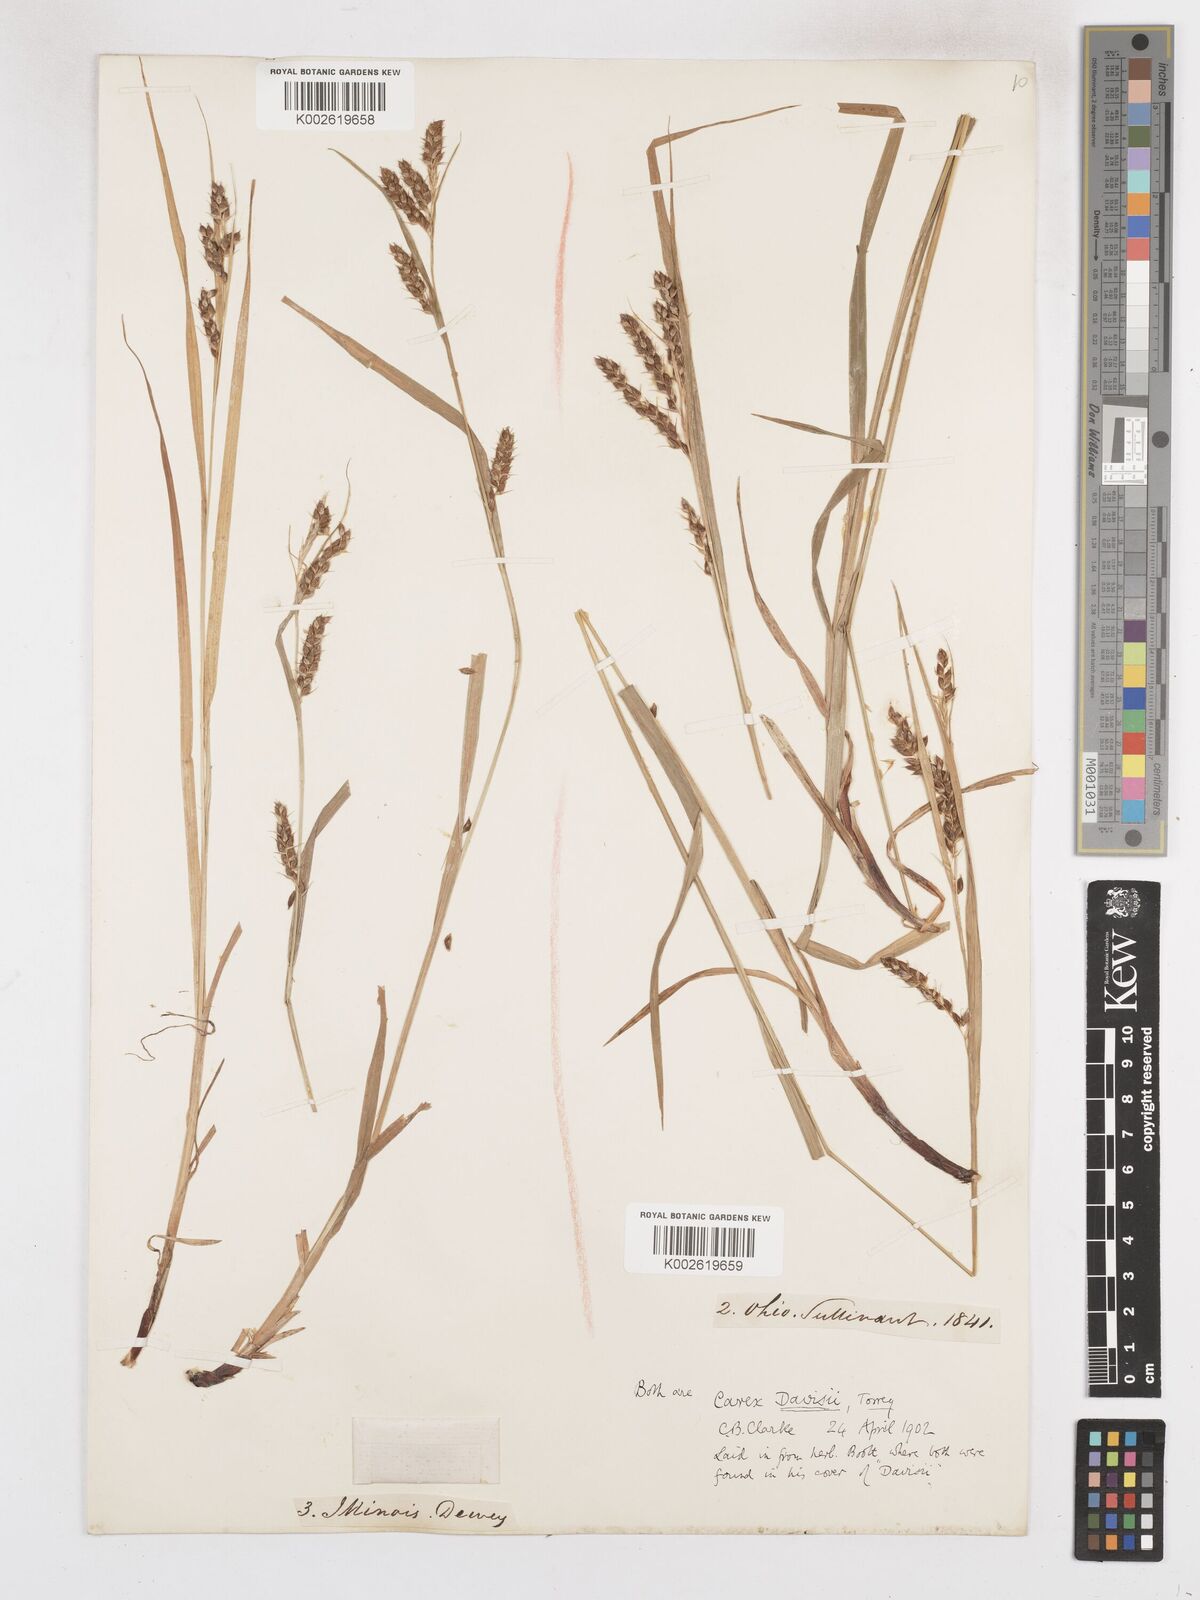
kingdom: Plantae
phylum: Tracheophyta
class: Liliopsida
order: Poales
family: Cyperaceae
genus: Carex
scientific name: Carex davisii
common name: Davis' sedge
